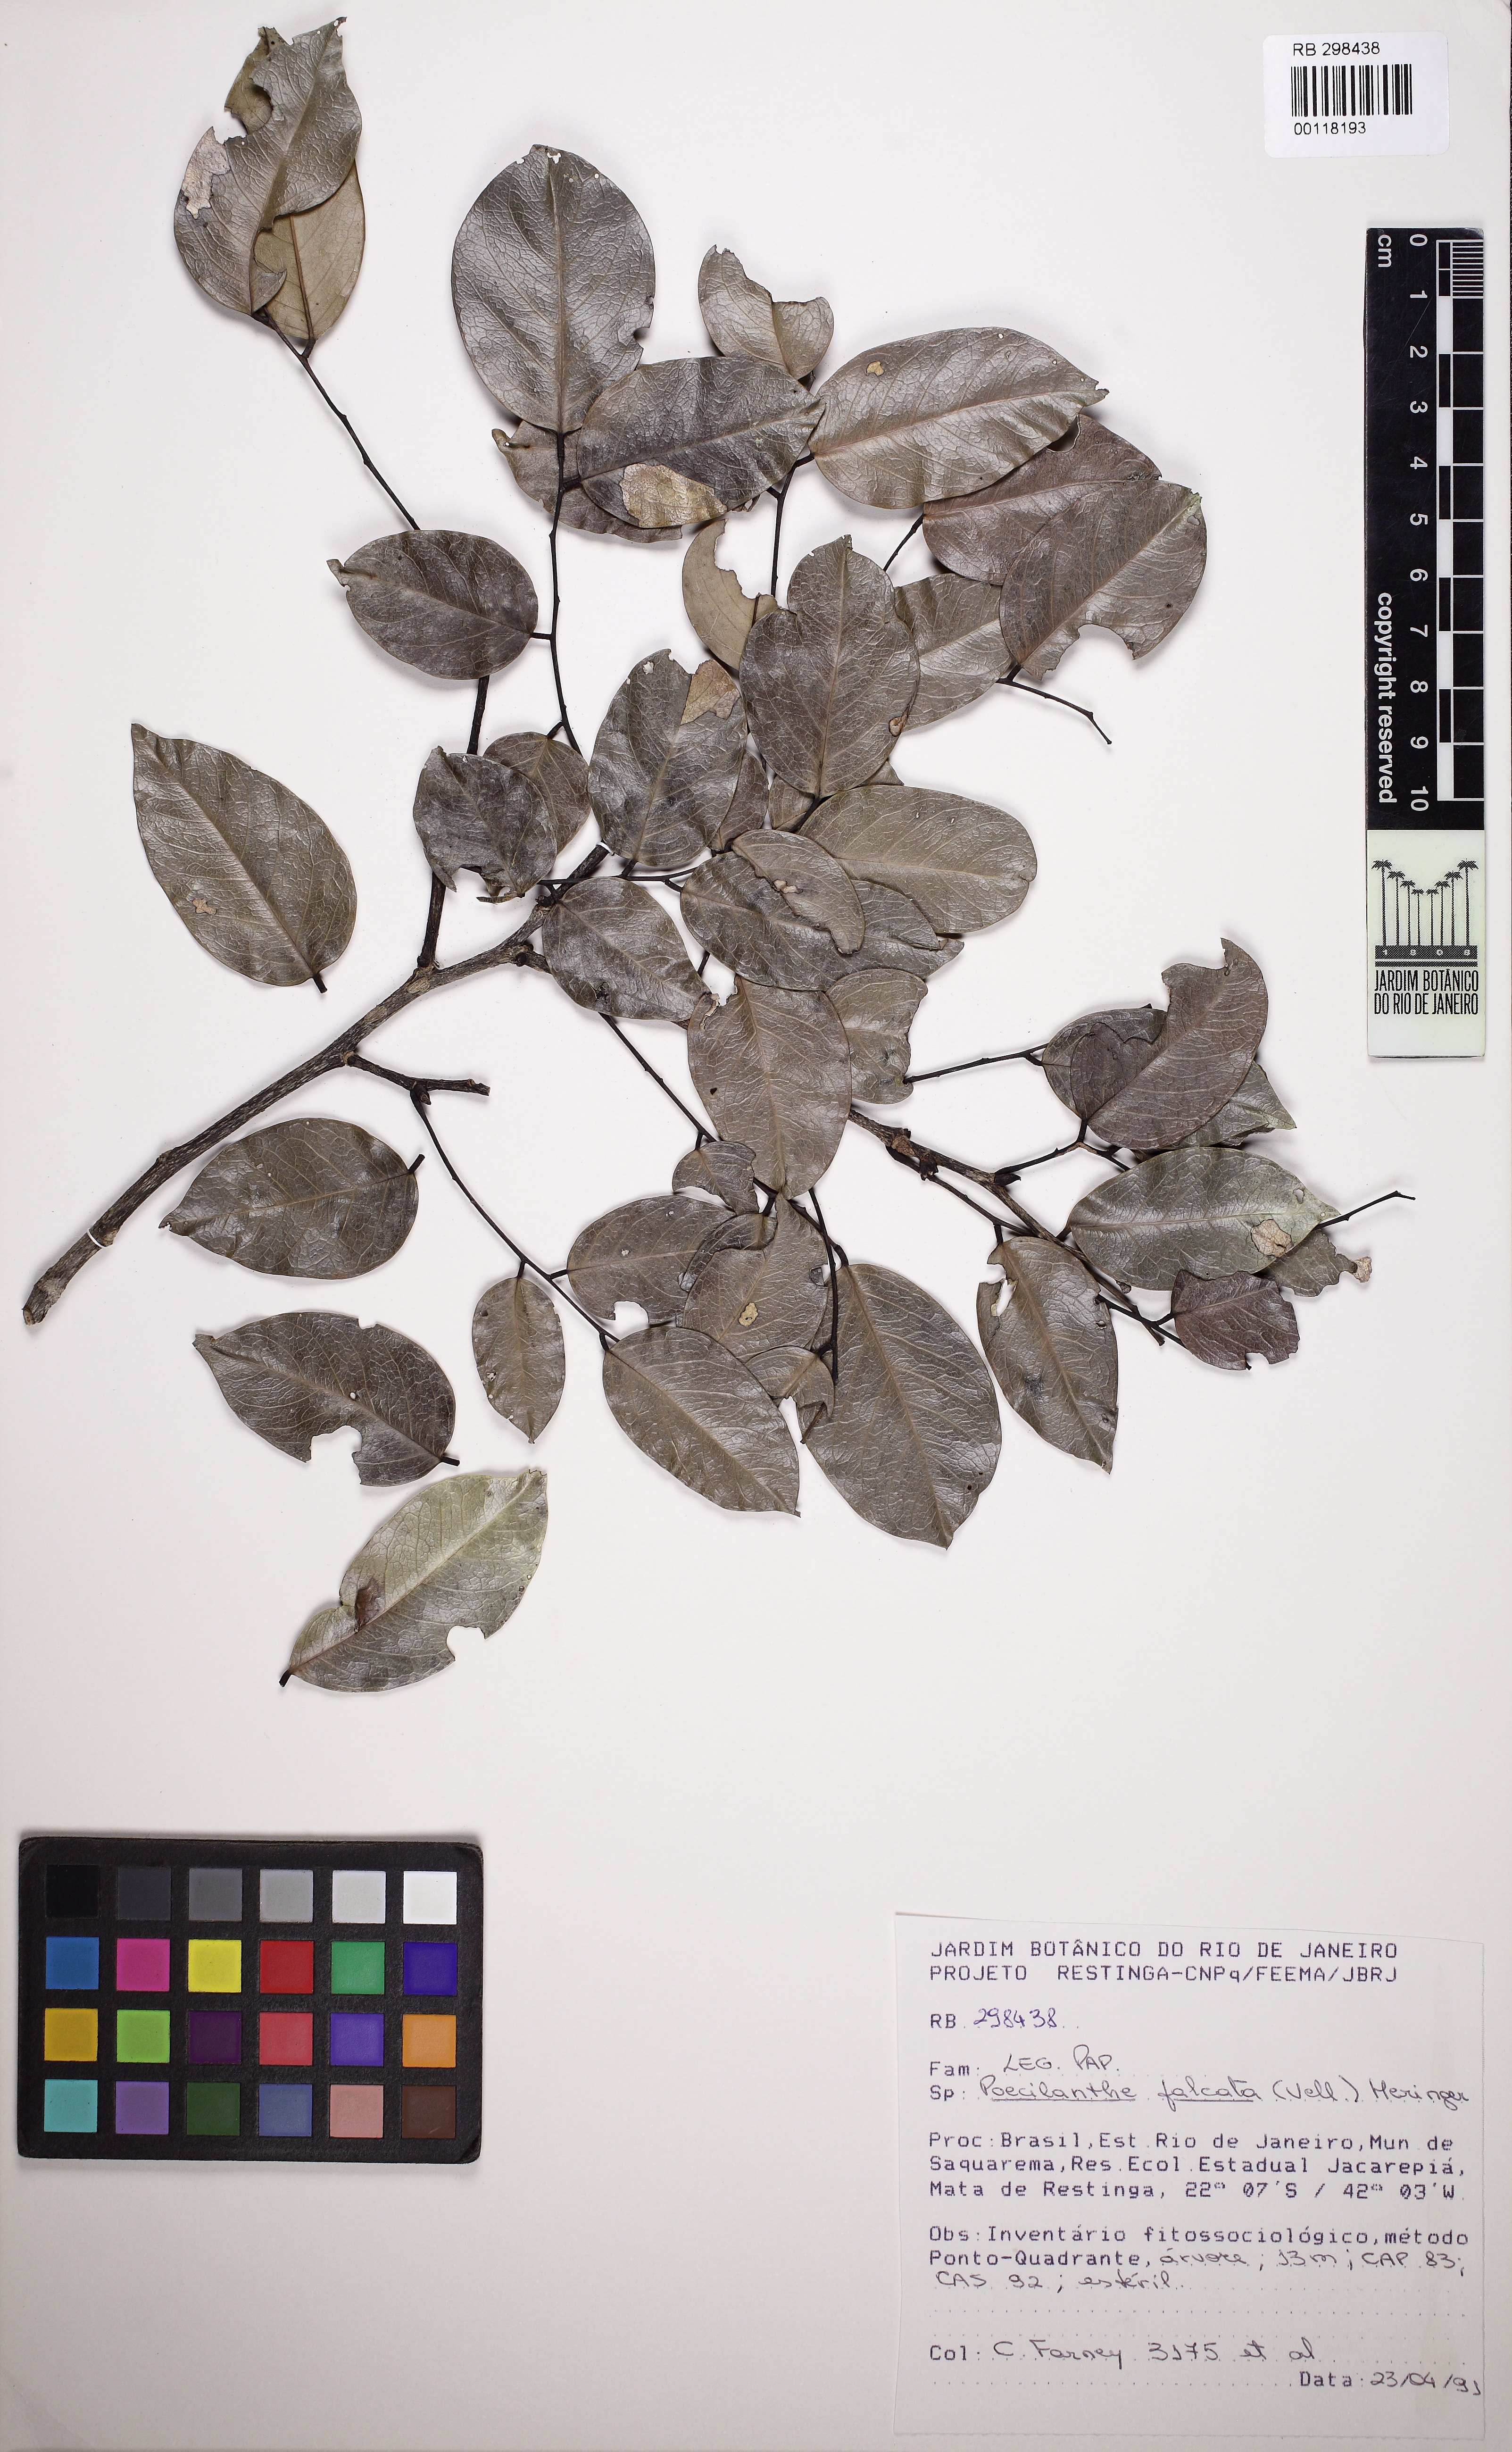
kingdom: Plantae
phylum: Tracheophyta
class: Magnoliopsida
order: Fabales
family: Fabaceae
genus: Poecilanthe
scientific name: Poecilanthe falcata
